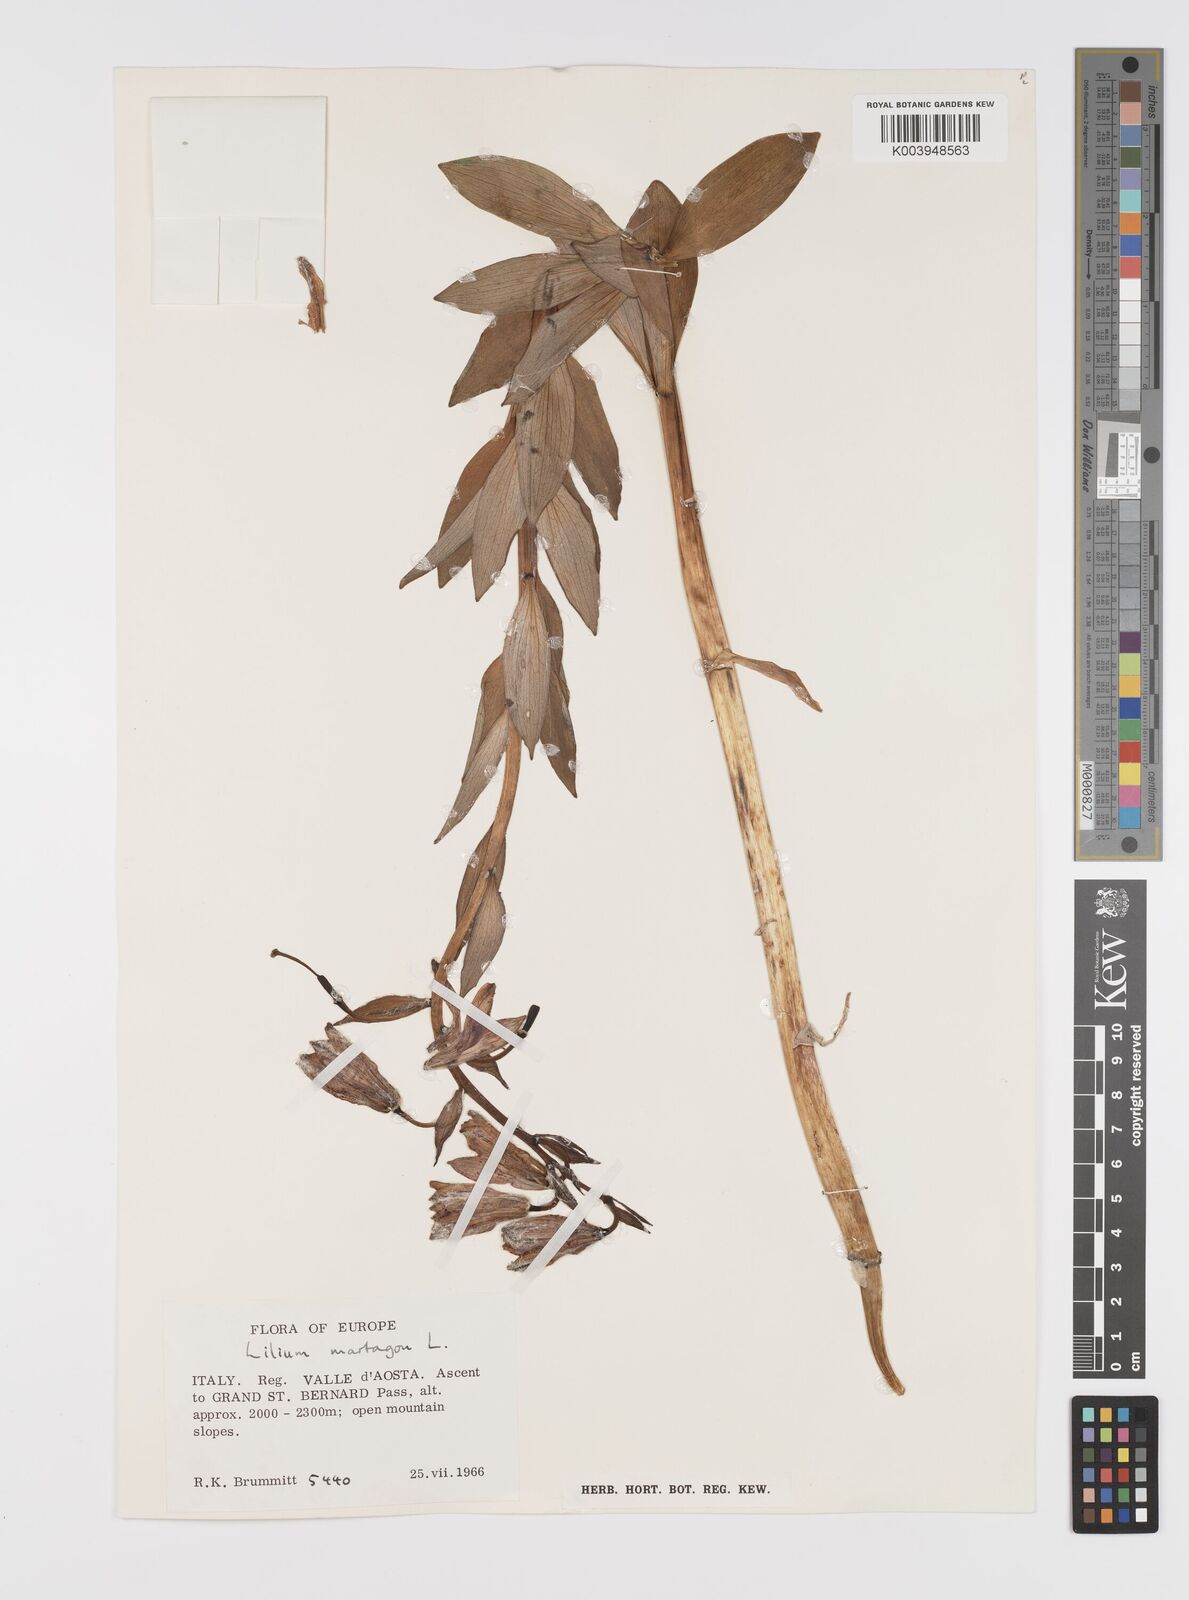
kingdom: Plantae
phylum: Tracheophyta
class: Liliopsida
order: Liliales
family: Liliaceae
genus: Lilium
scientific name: Lilium martagon
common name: Martagon lily
